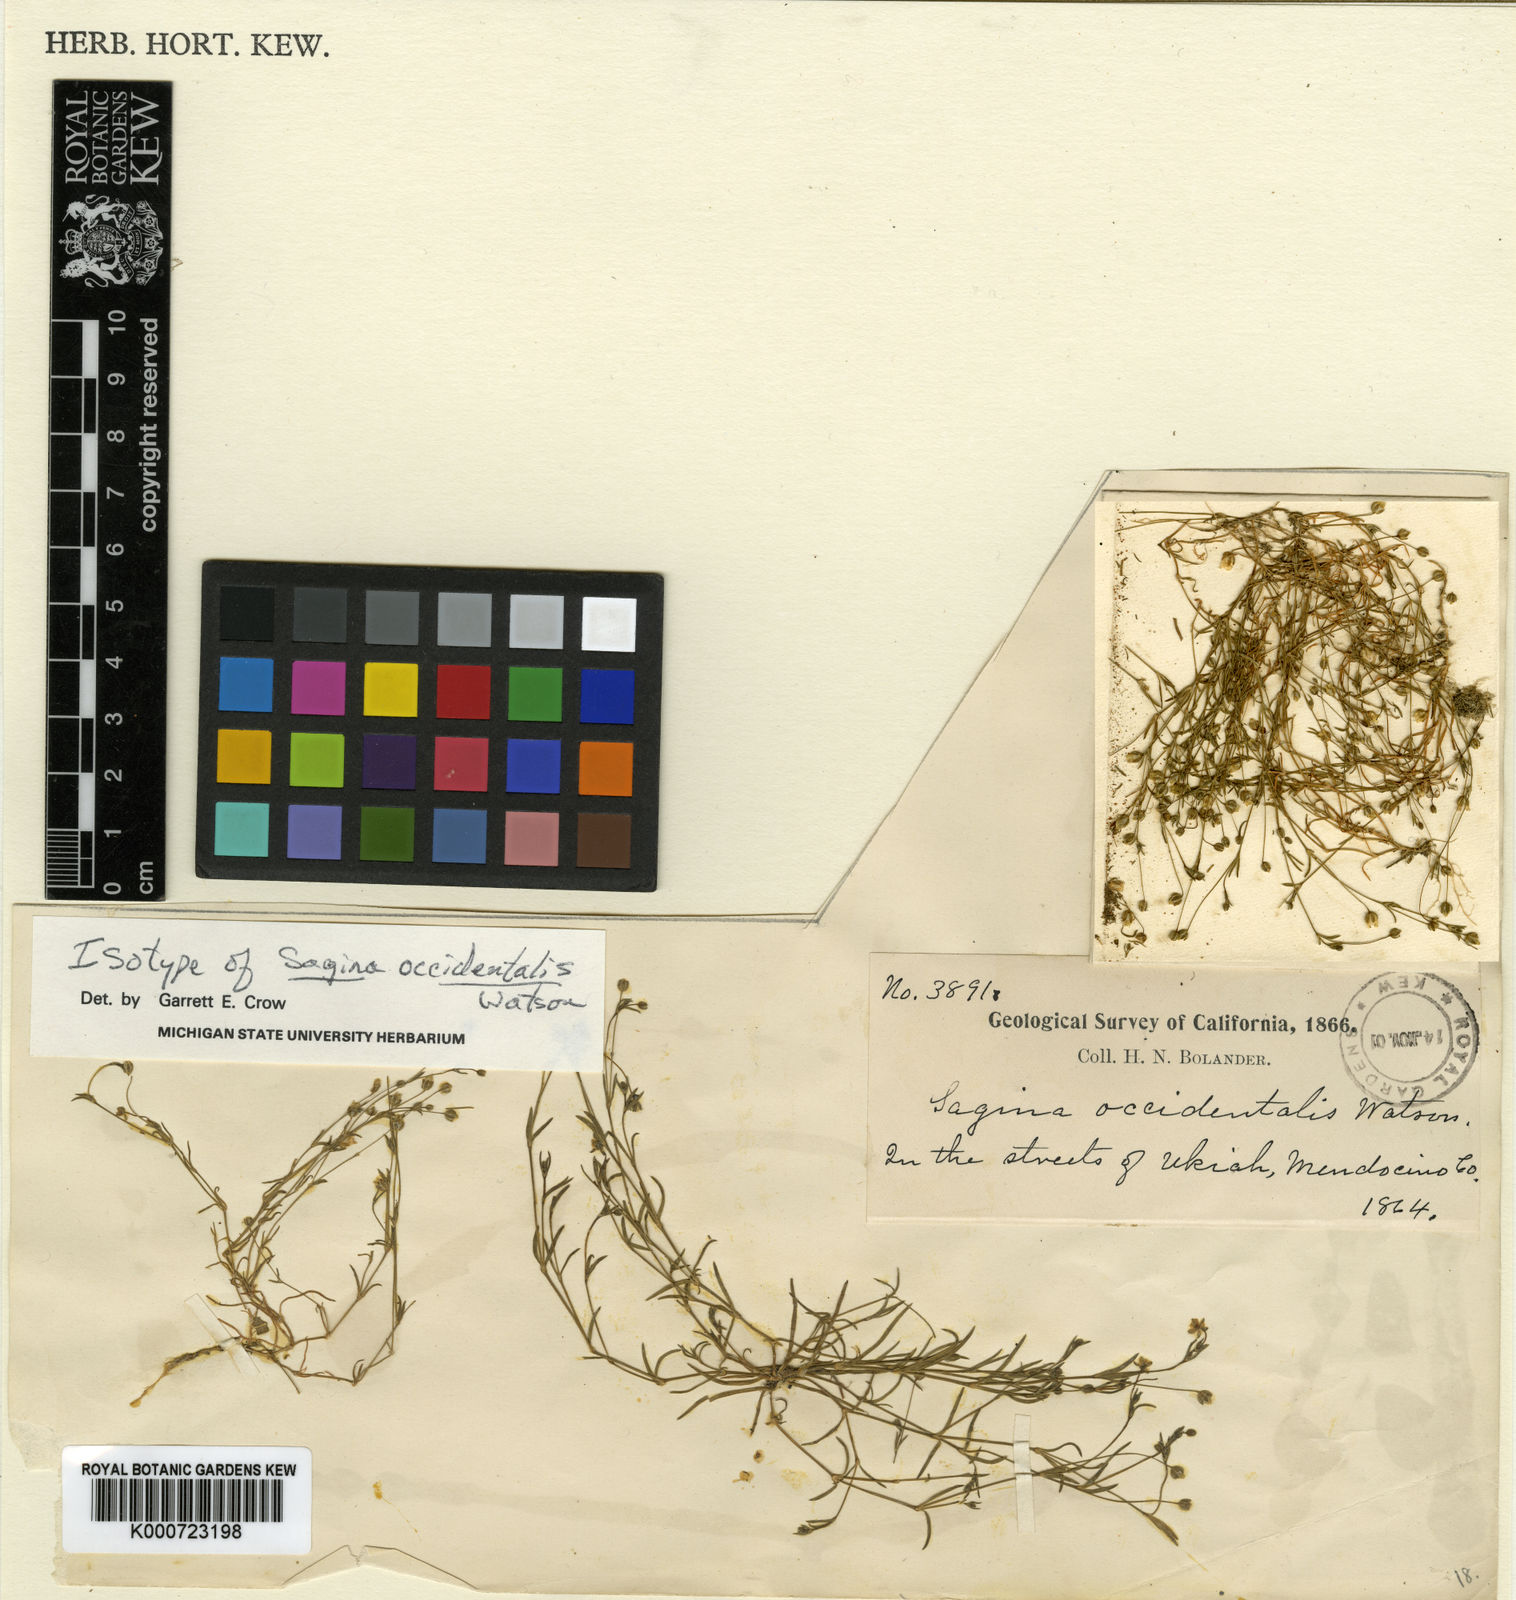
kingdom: Plantae
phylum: Tracheophyta
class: Magnoliopsida
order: Caryophyllales
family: Caryophyllaceae
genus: Sagina
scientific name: Sagina decumbens
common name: Decumbent pearlwort
